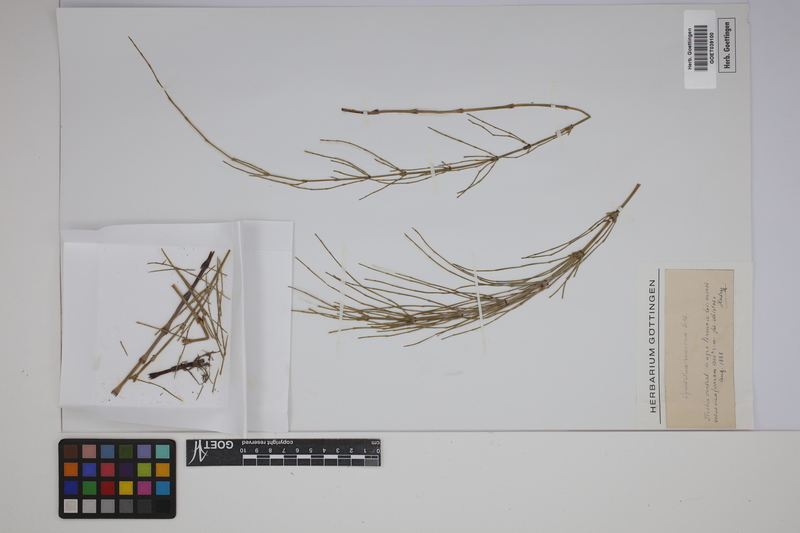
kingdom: Plantae
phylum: Tracheophyta
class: Polypodiopsida
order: Equisetales
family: Equisetaceae
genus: Equisetum
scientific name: Equisetum giganteum
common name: Giant horsetail
